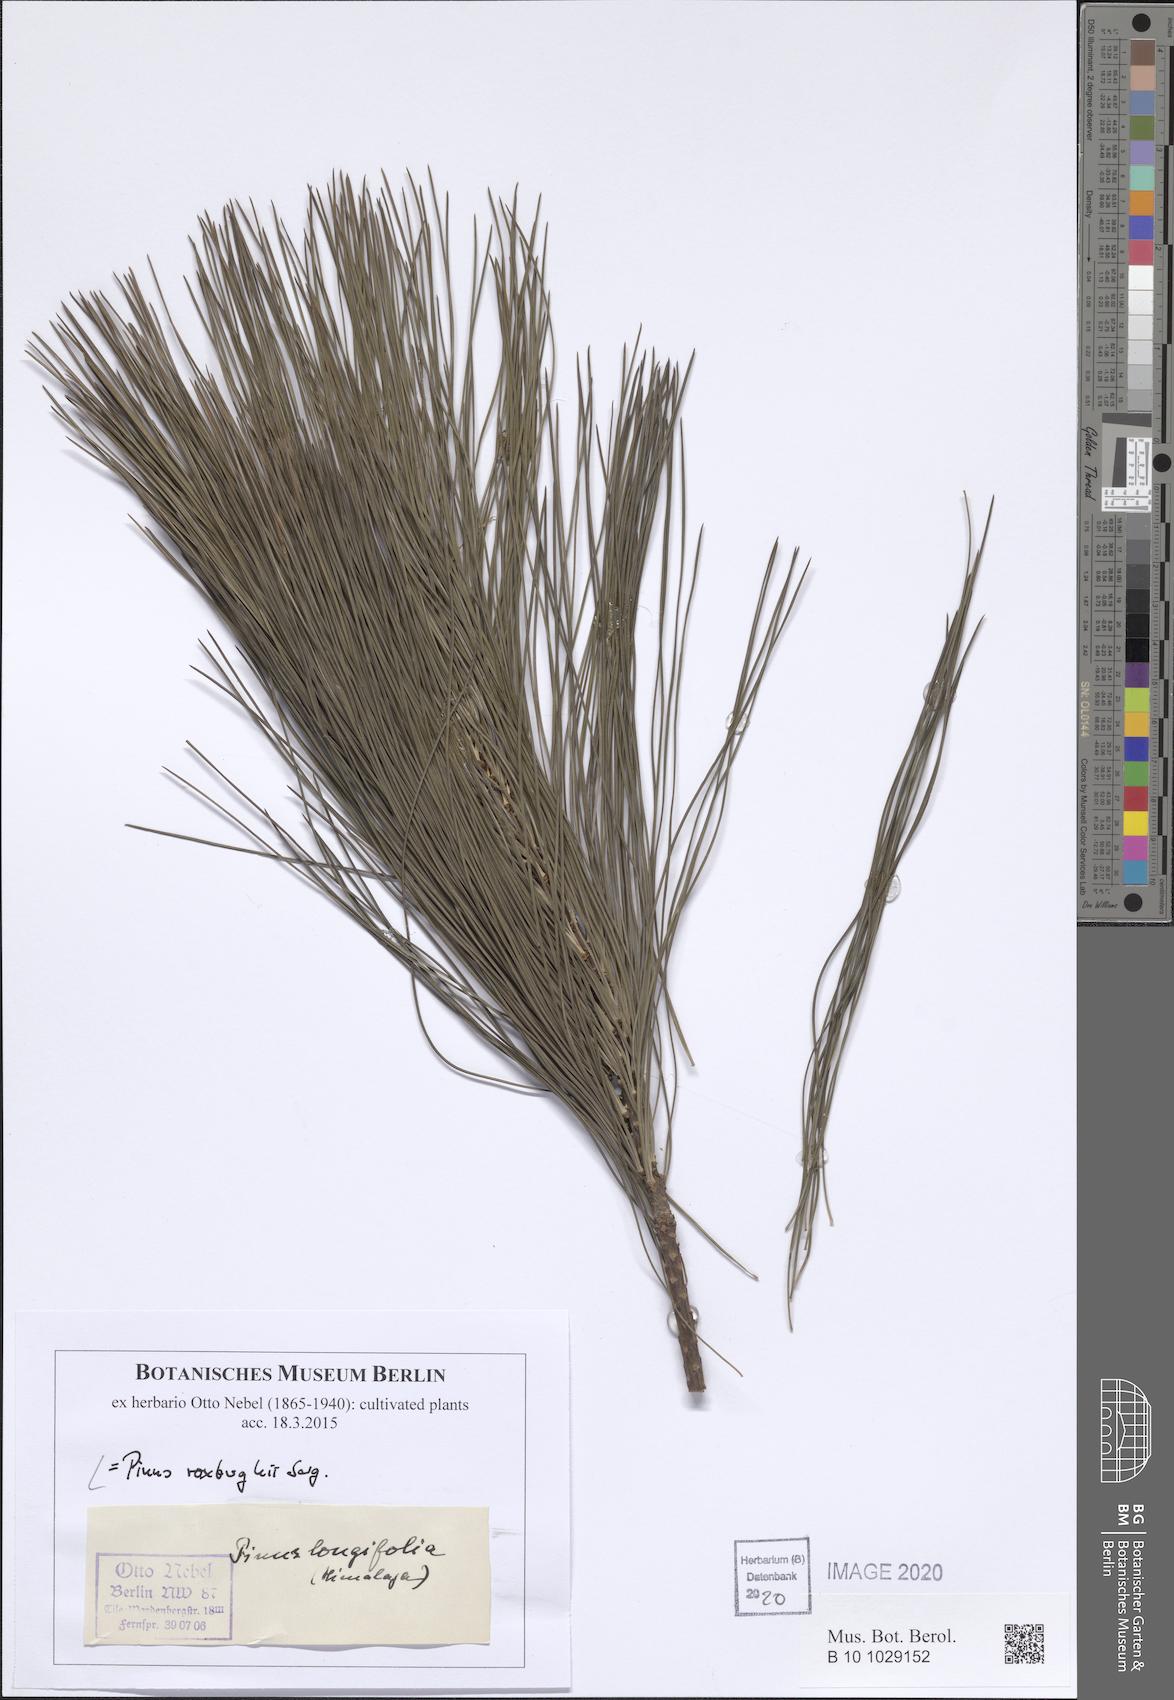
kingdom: Plantae
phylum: Tracheophyta
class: Pinopsida
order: Pinales
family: Pinaceae
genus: Pinus
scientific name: Pinus roxburghii
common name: Chir pine
